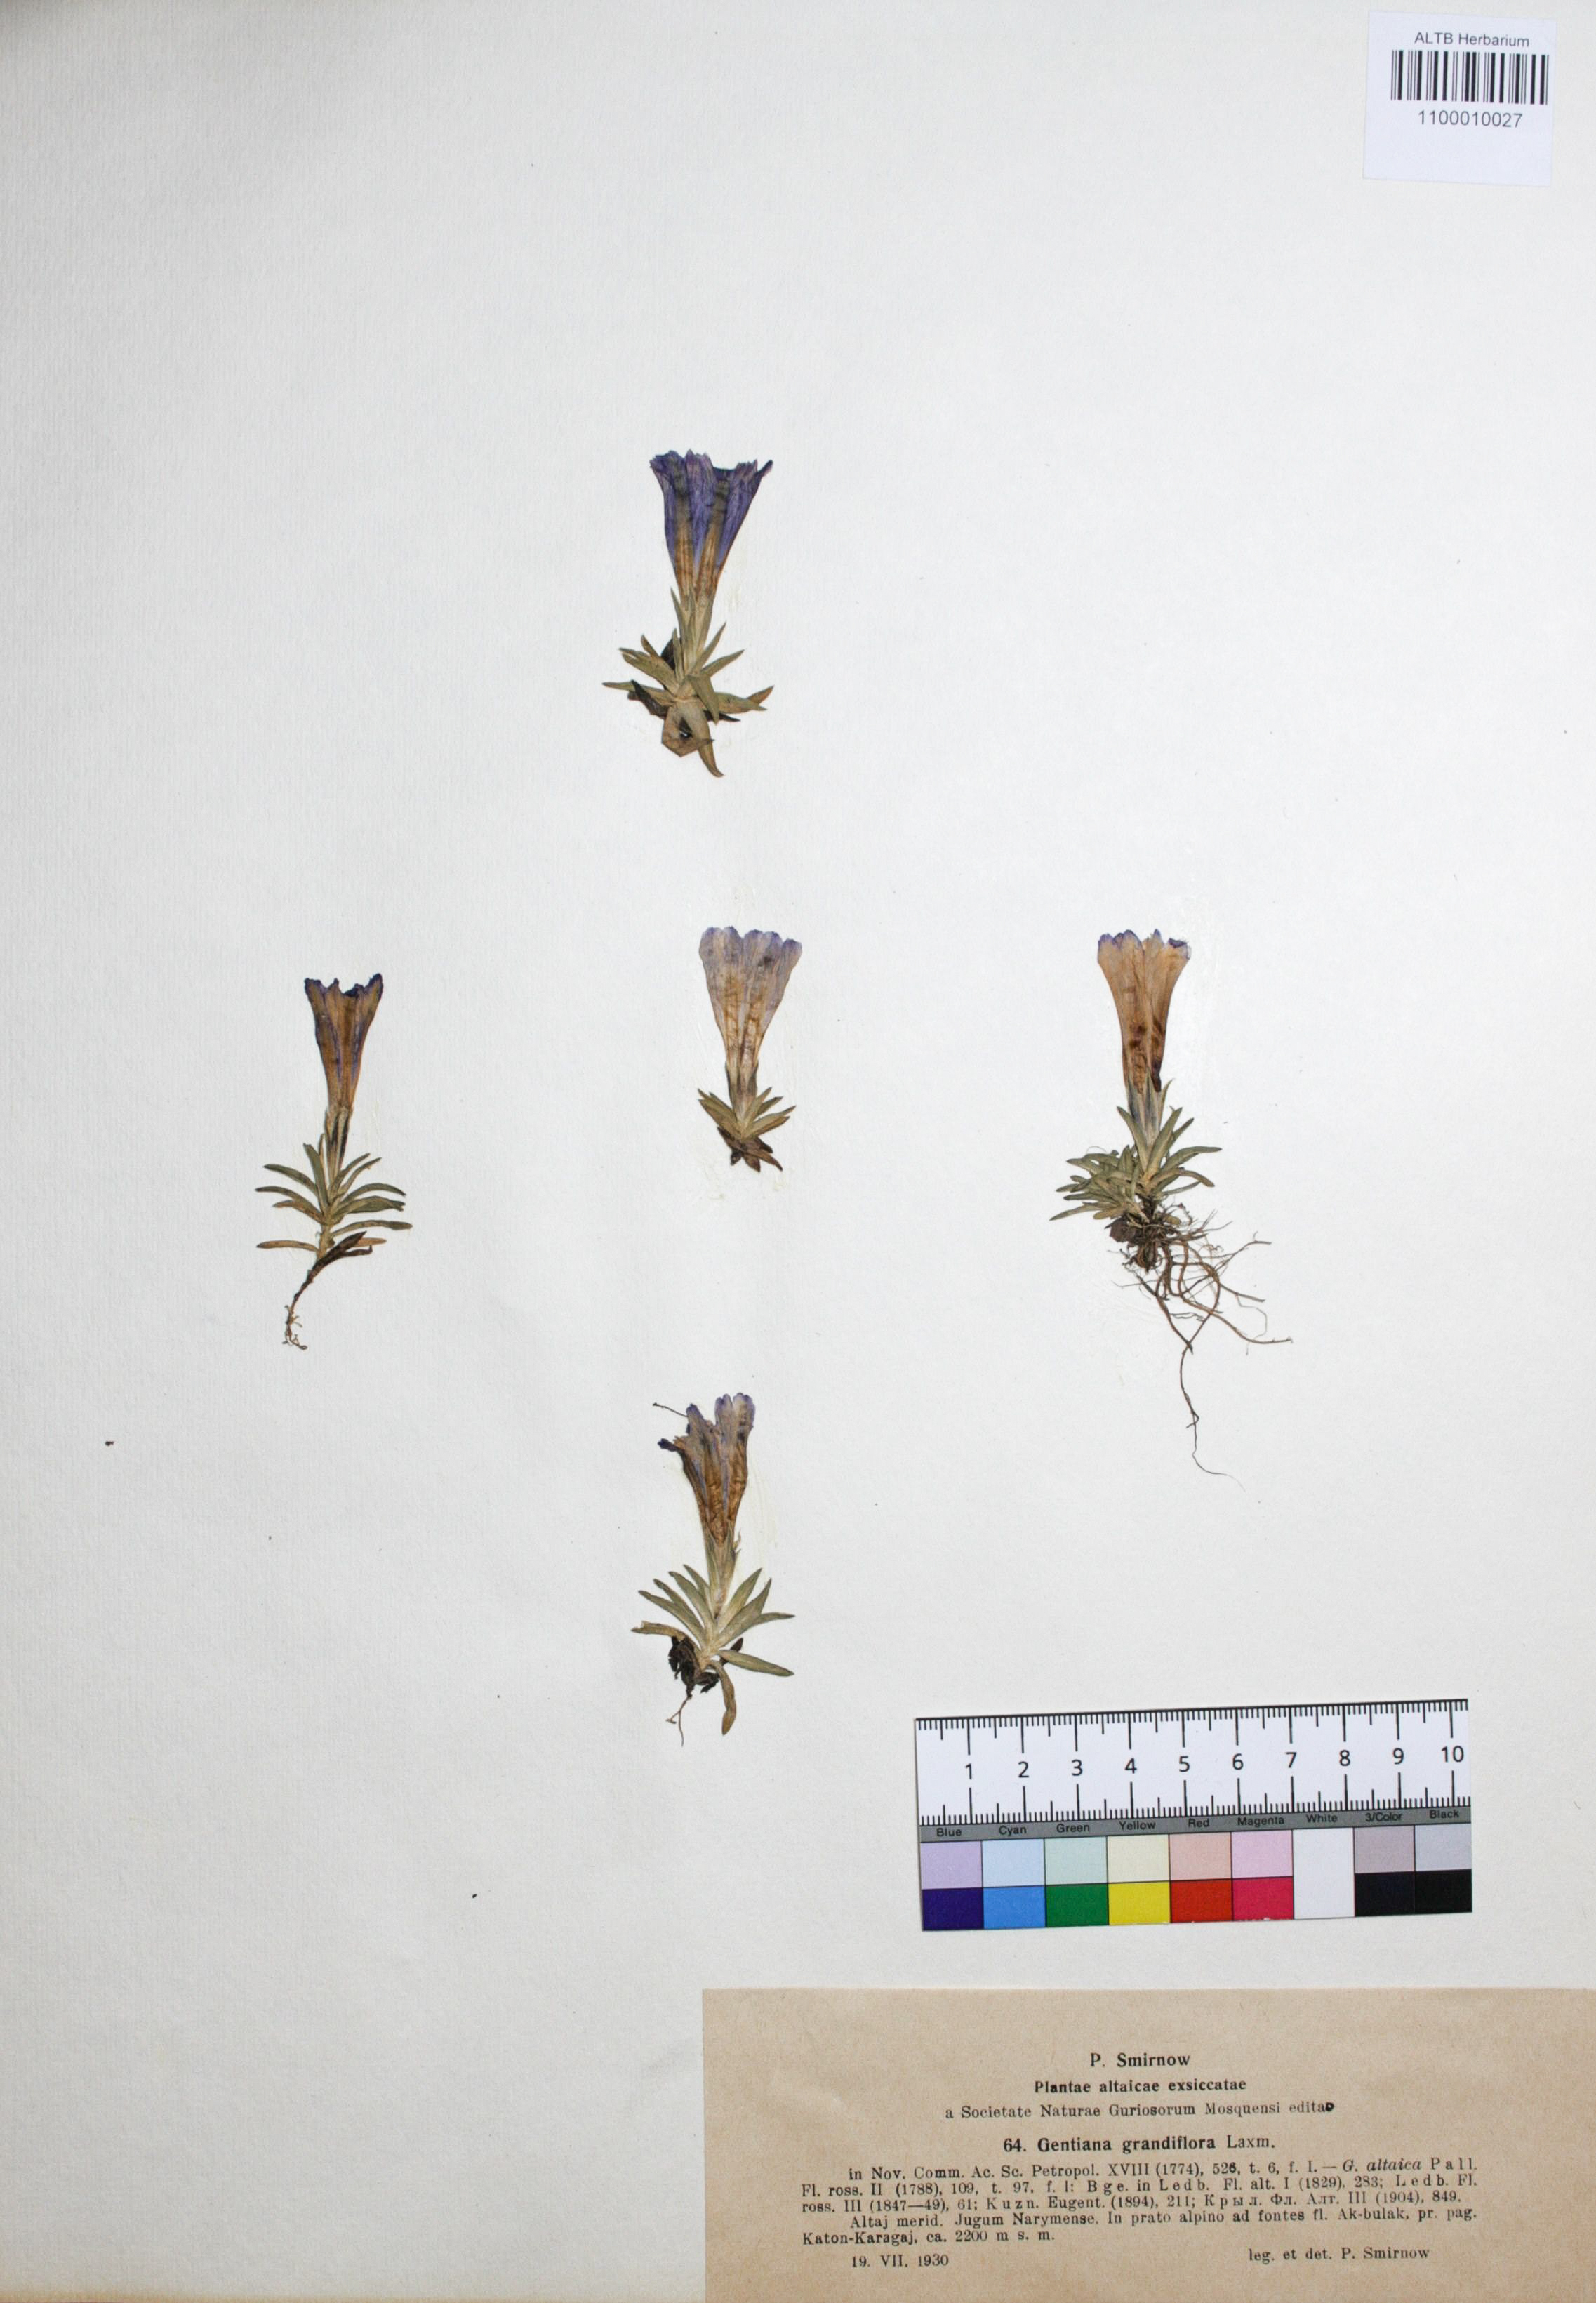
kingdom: Plantae
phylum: Tracheophyta
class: Magnoliopsida
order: Gentianales
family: Gentianaceae
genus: Gentiana
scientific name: Gentiana grandiflora
